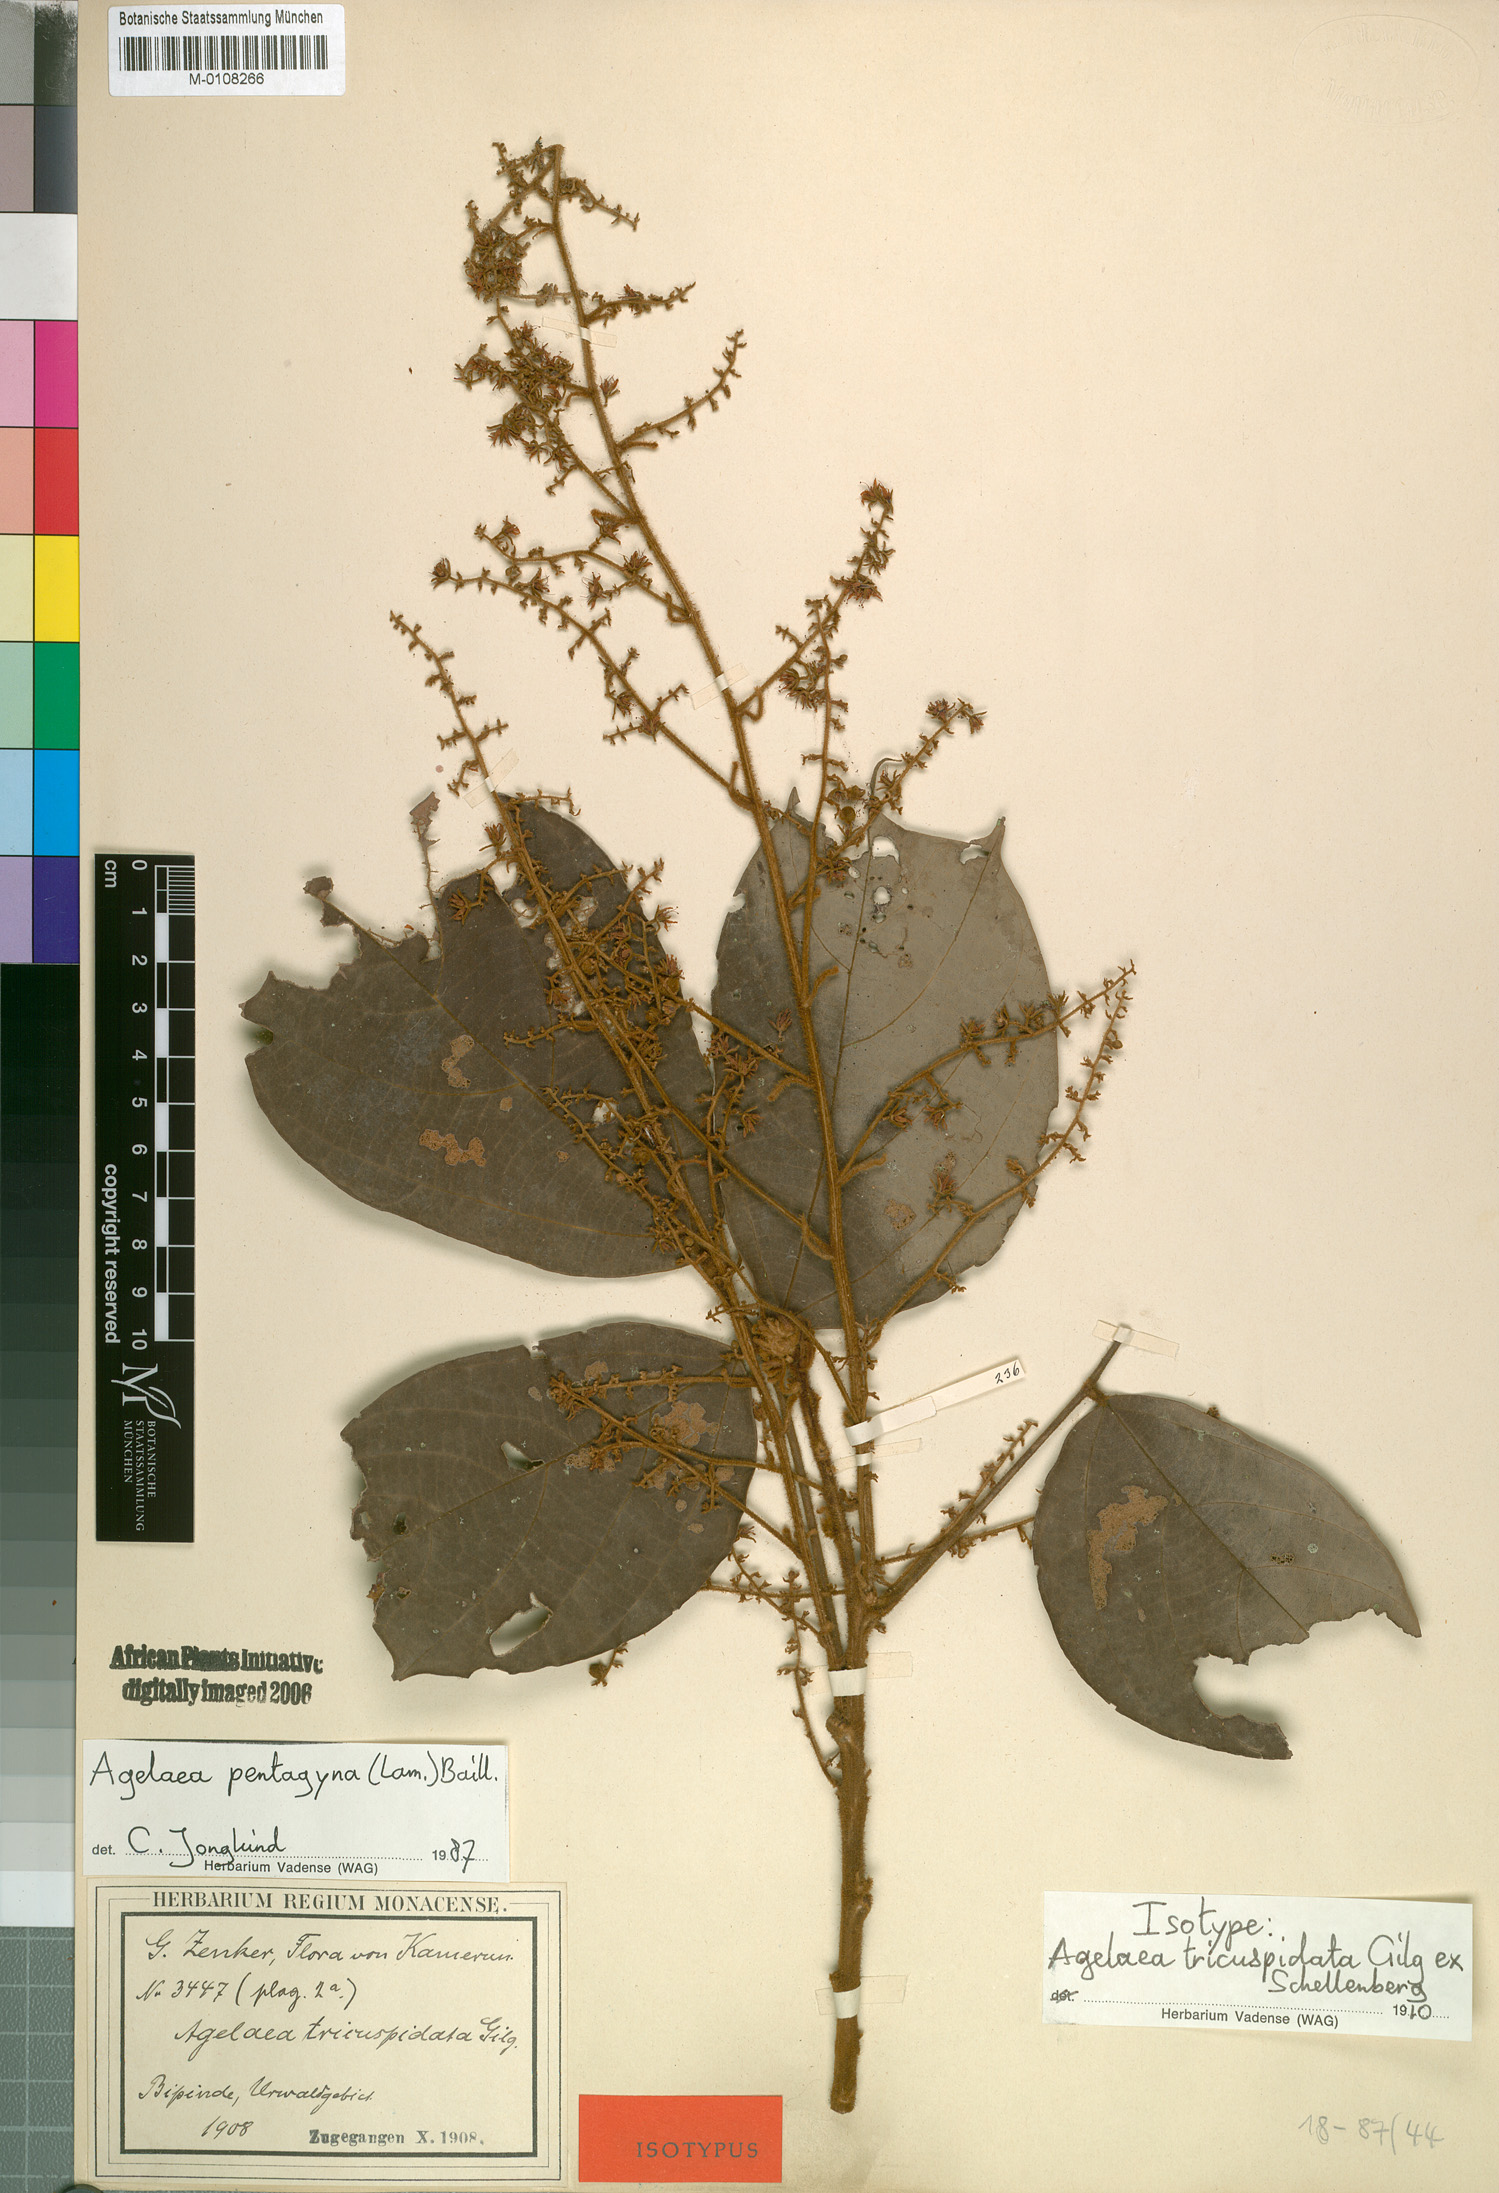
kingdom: Plantae
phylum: Tracheophyta
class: Magnoliopsida
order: Oxalidales
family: Connaraceae
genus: Agelaea
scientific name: Agelaea pentagyna
